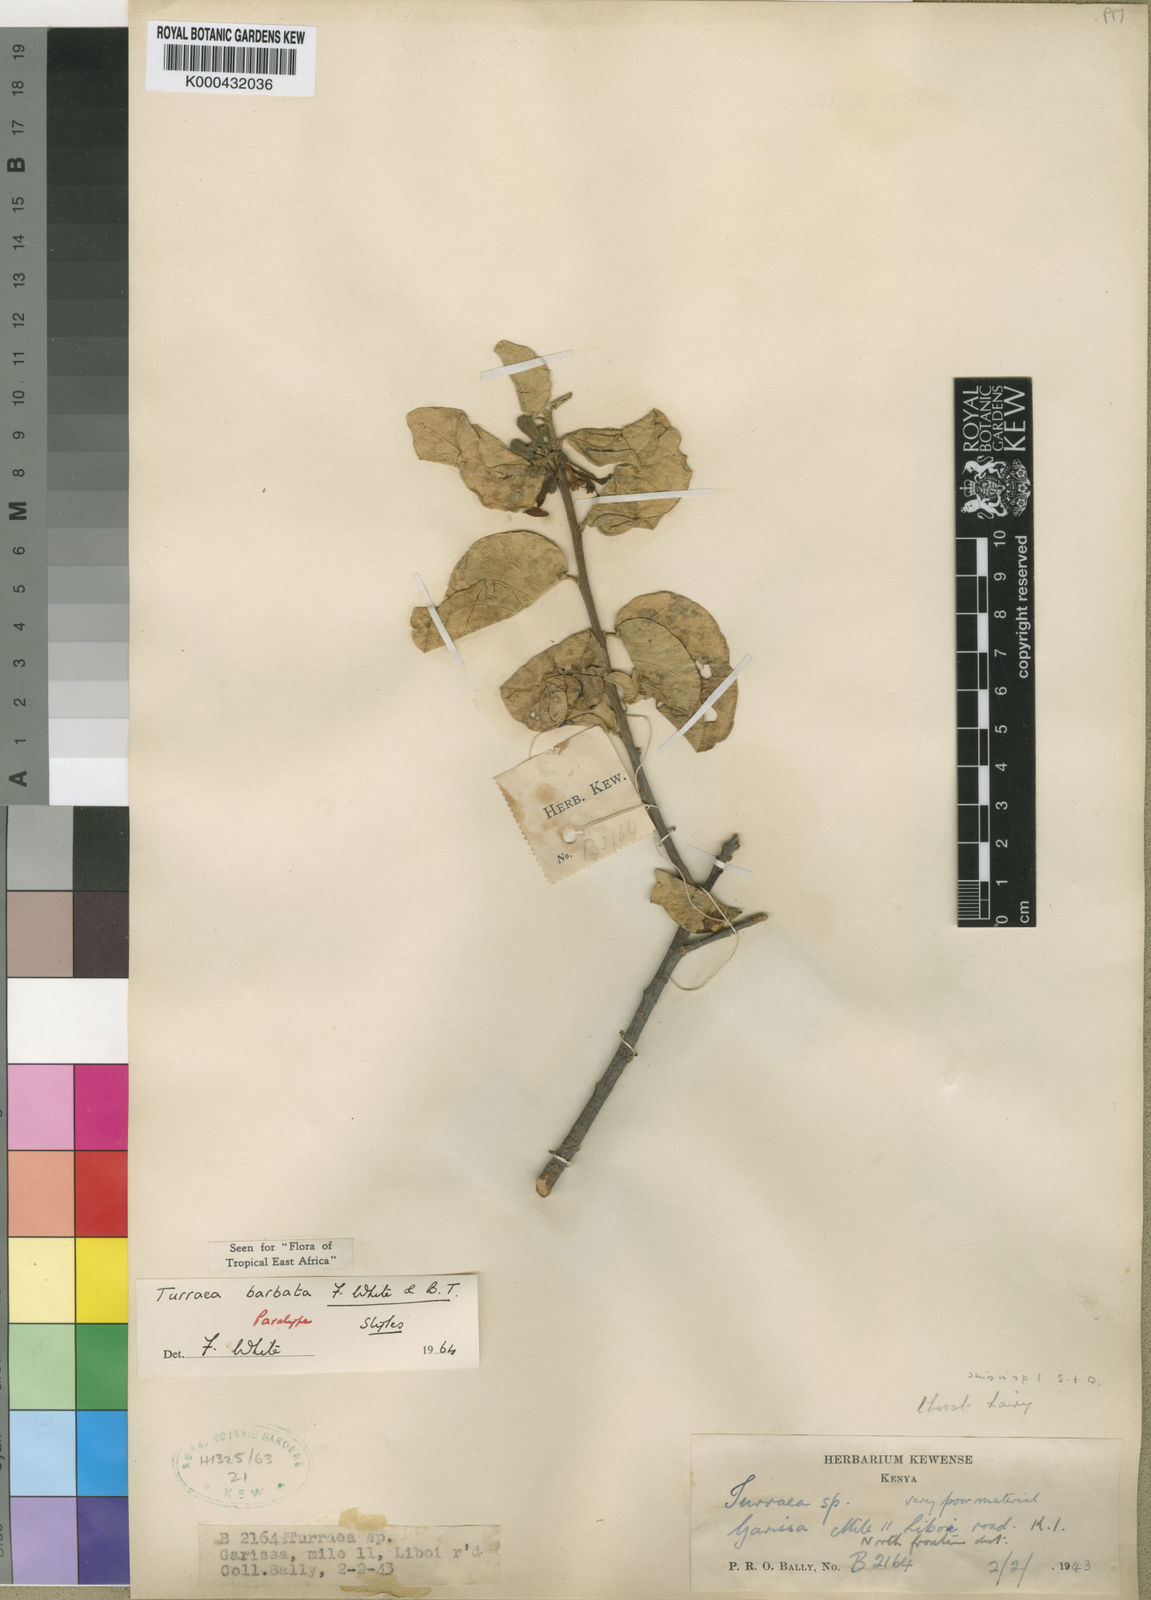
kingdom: Plantae
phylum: Tracheophyta
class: Magnoliopsida
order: Sapindales
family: Meliaceae
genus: Turraea
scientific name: Turraea barbata
